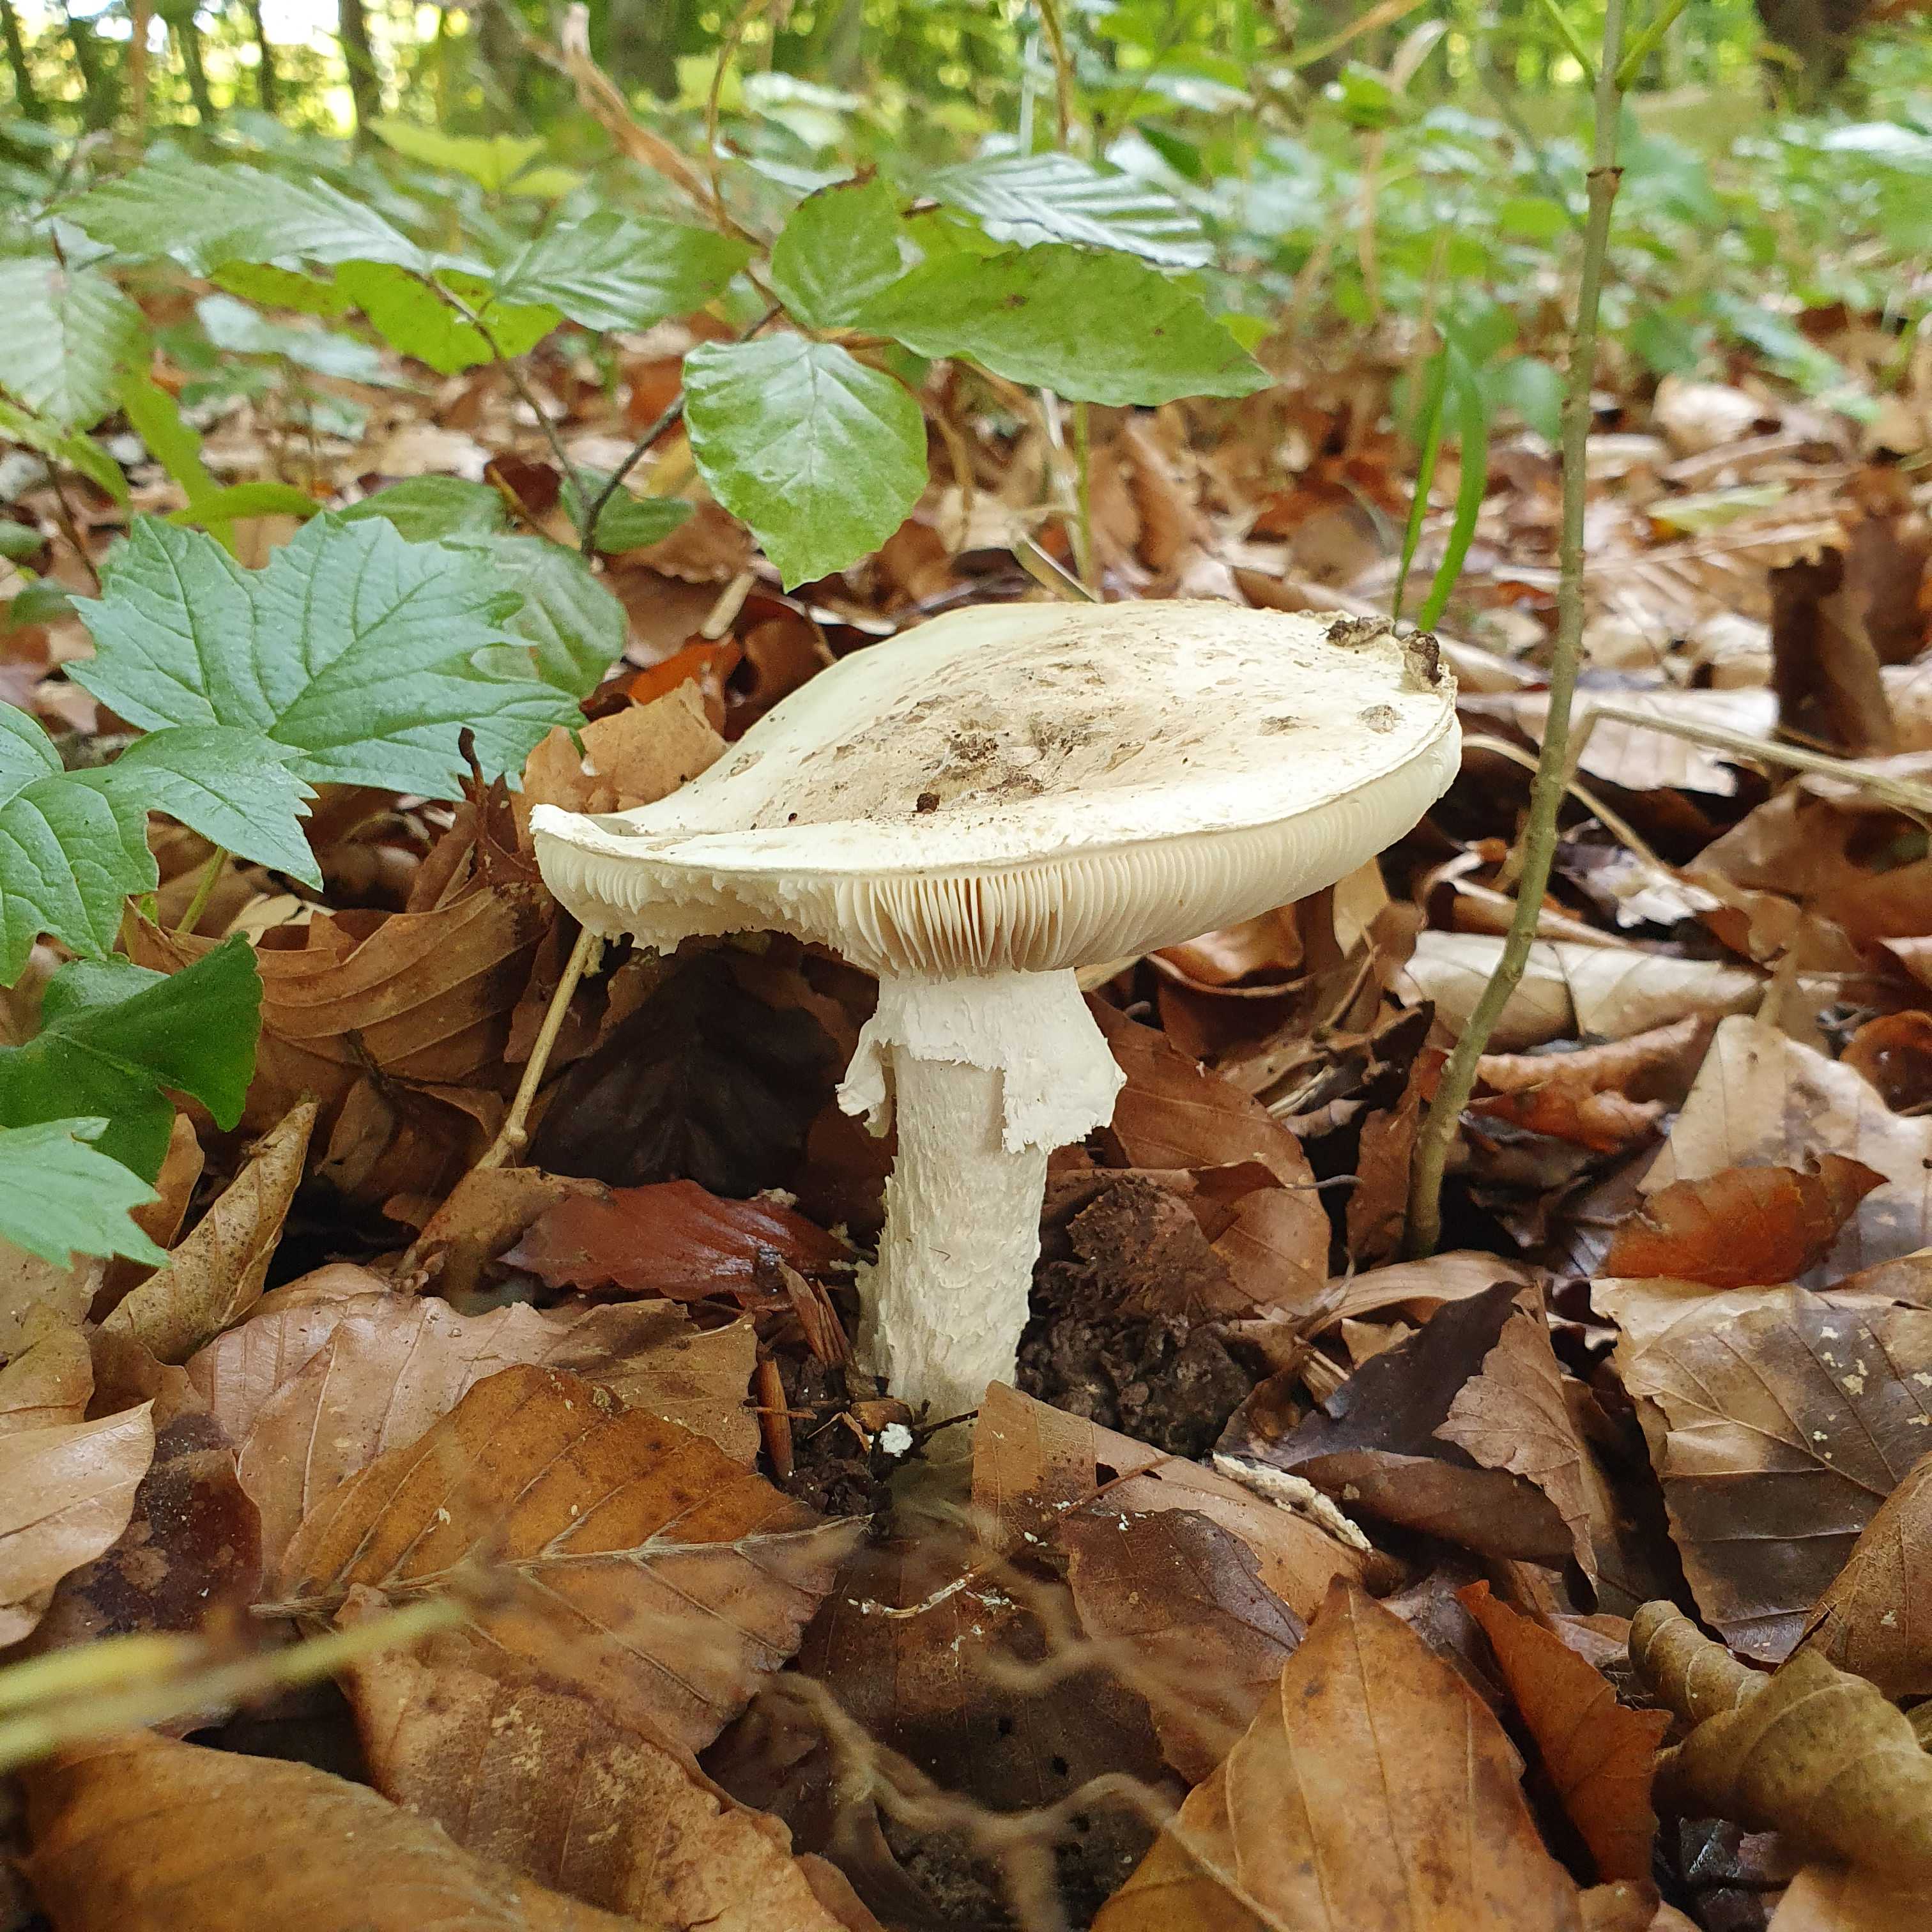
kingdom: Fungi
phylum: Basidiomycota
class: Agaricomycetes
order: Agaricales
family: Amanitaceae
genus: Amanita
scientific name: Amanita
